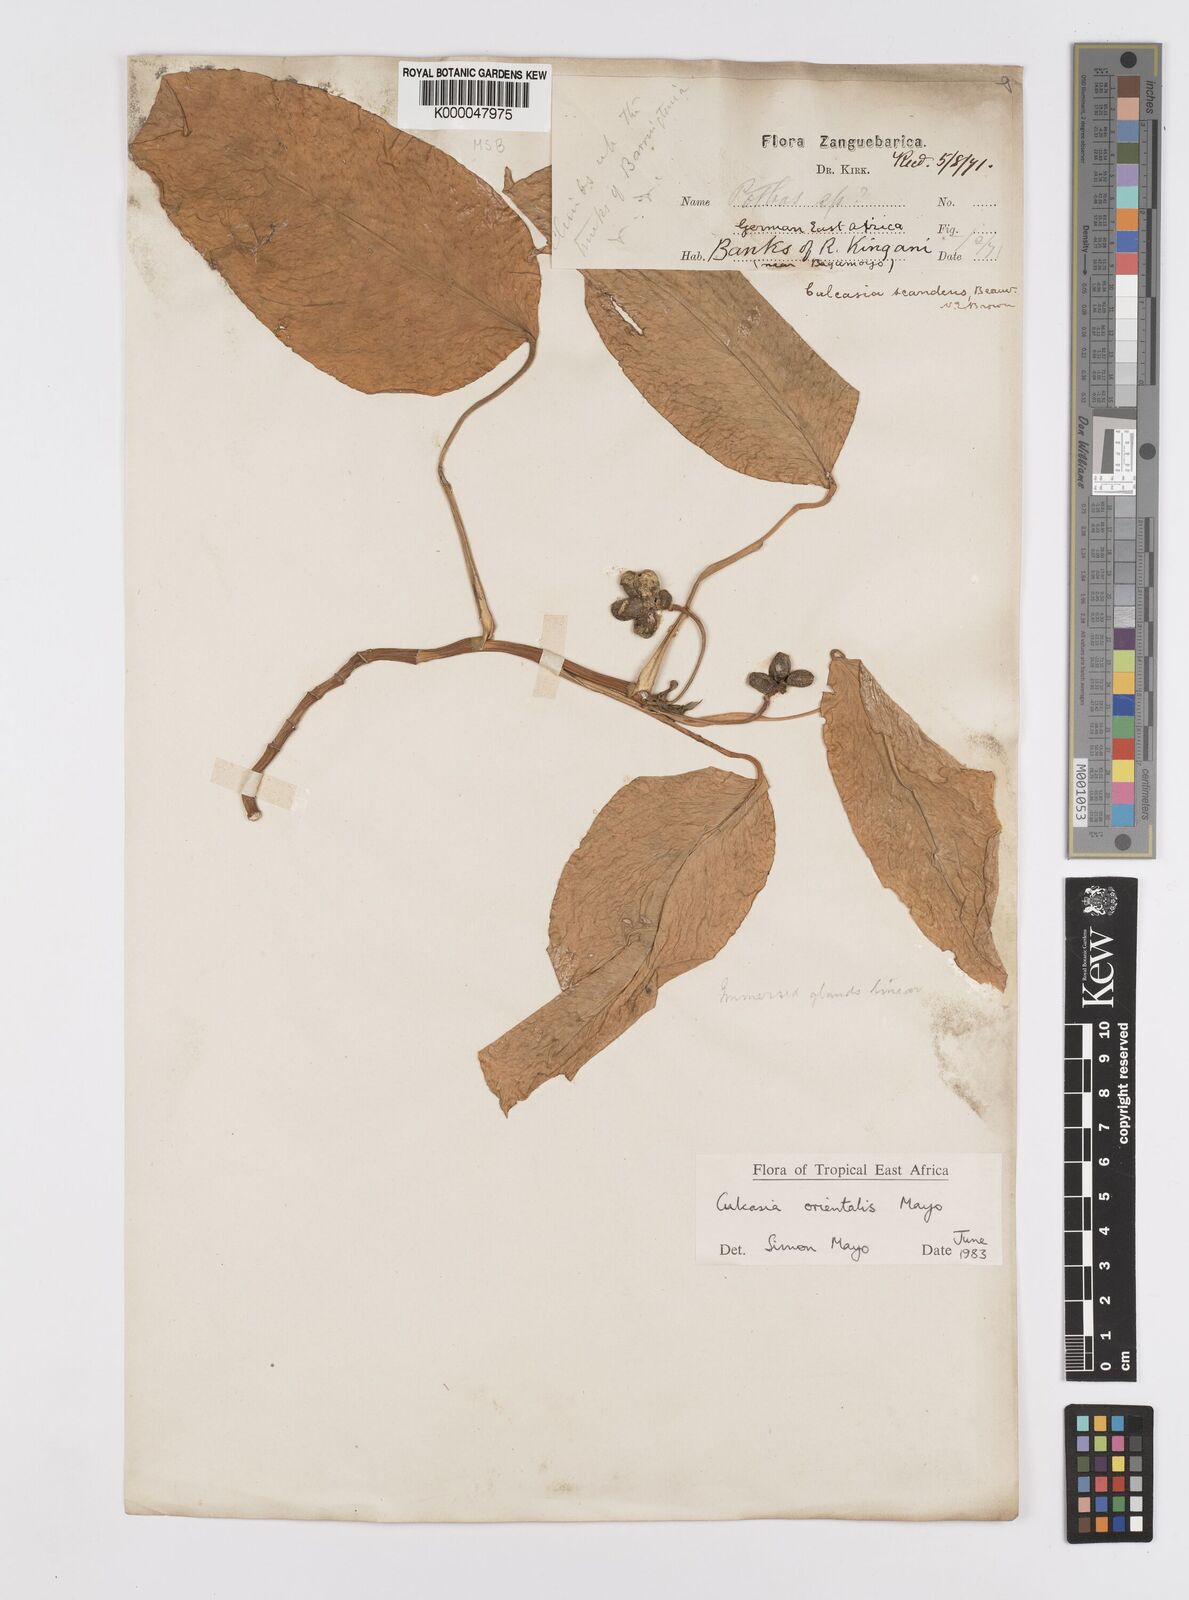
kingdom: Plantae
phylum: Tracheophyta
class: Liliopsida
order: Alismatales
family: Araceae
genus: Culcasia
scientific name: Culcasia orientalis
